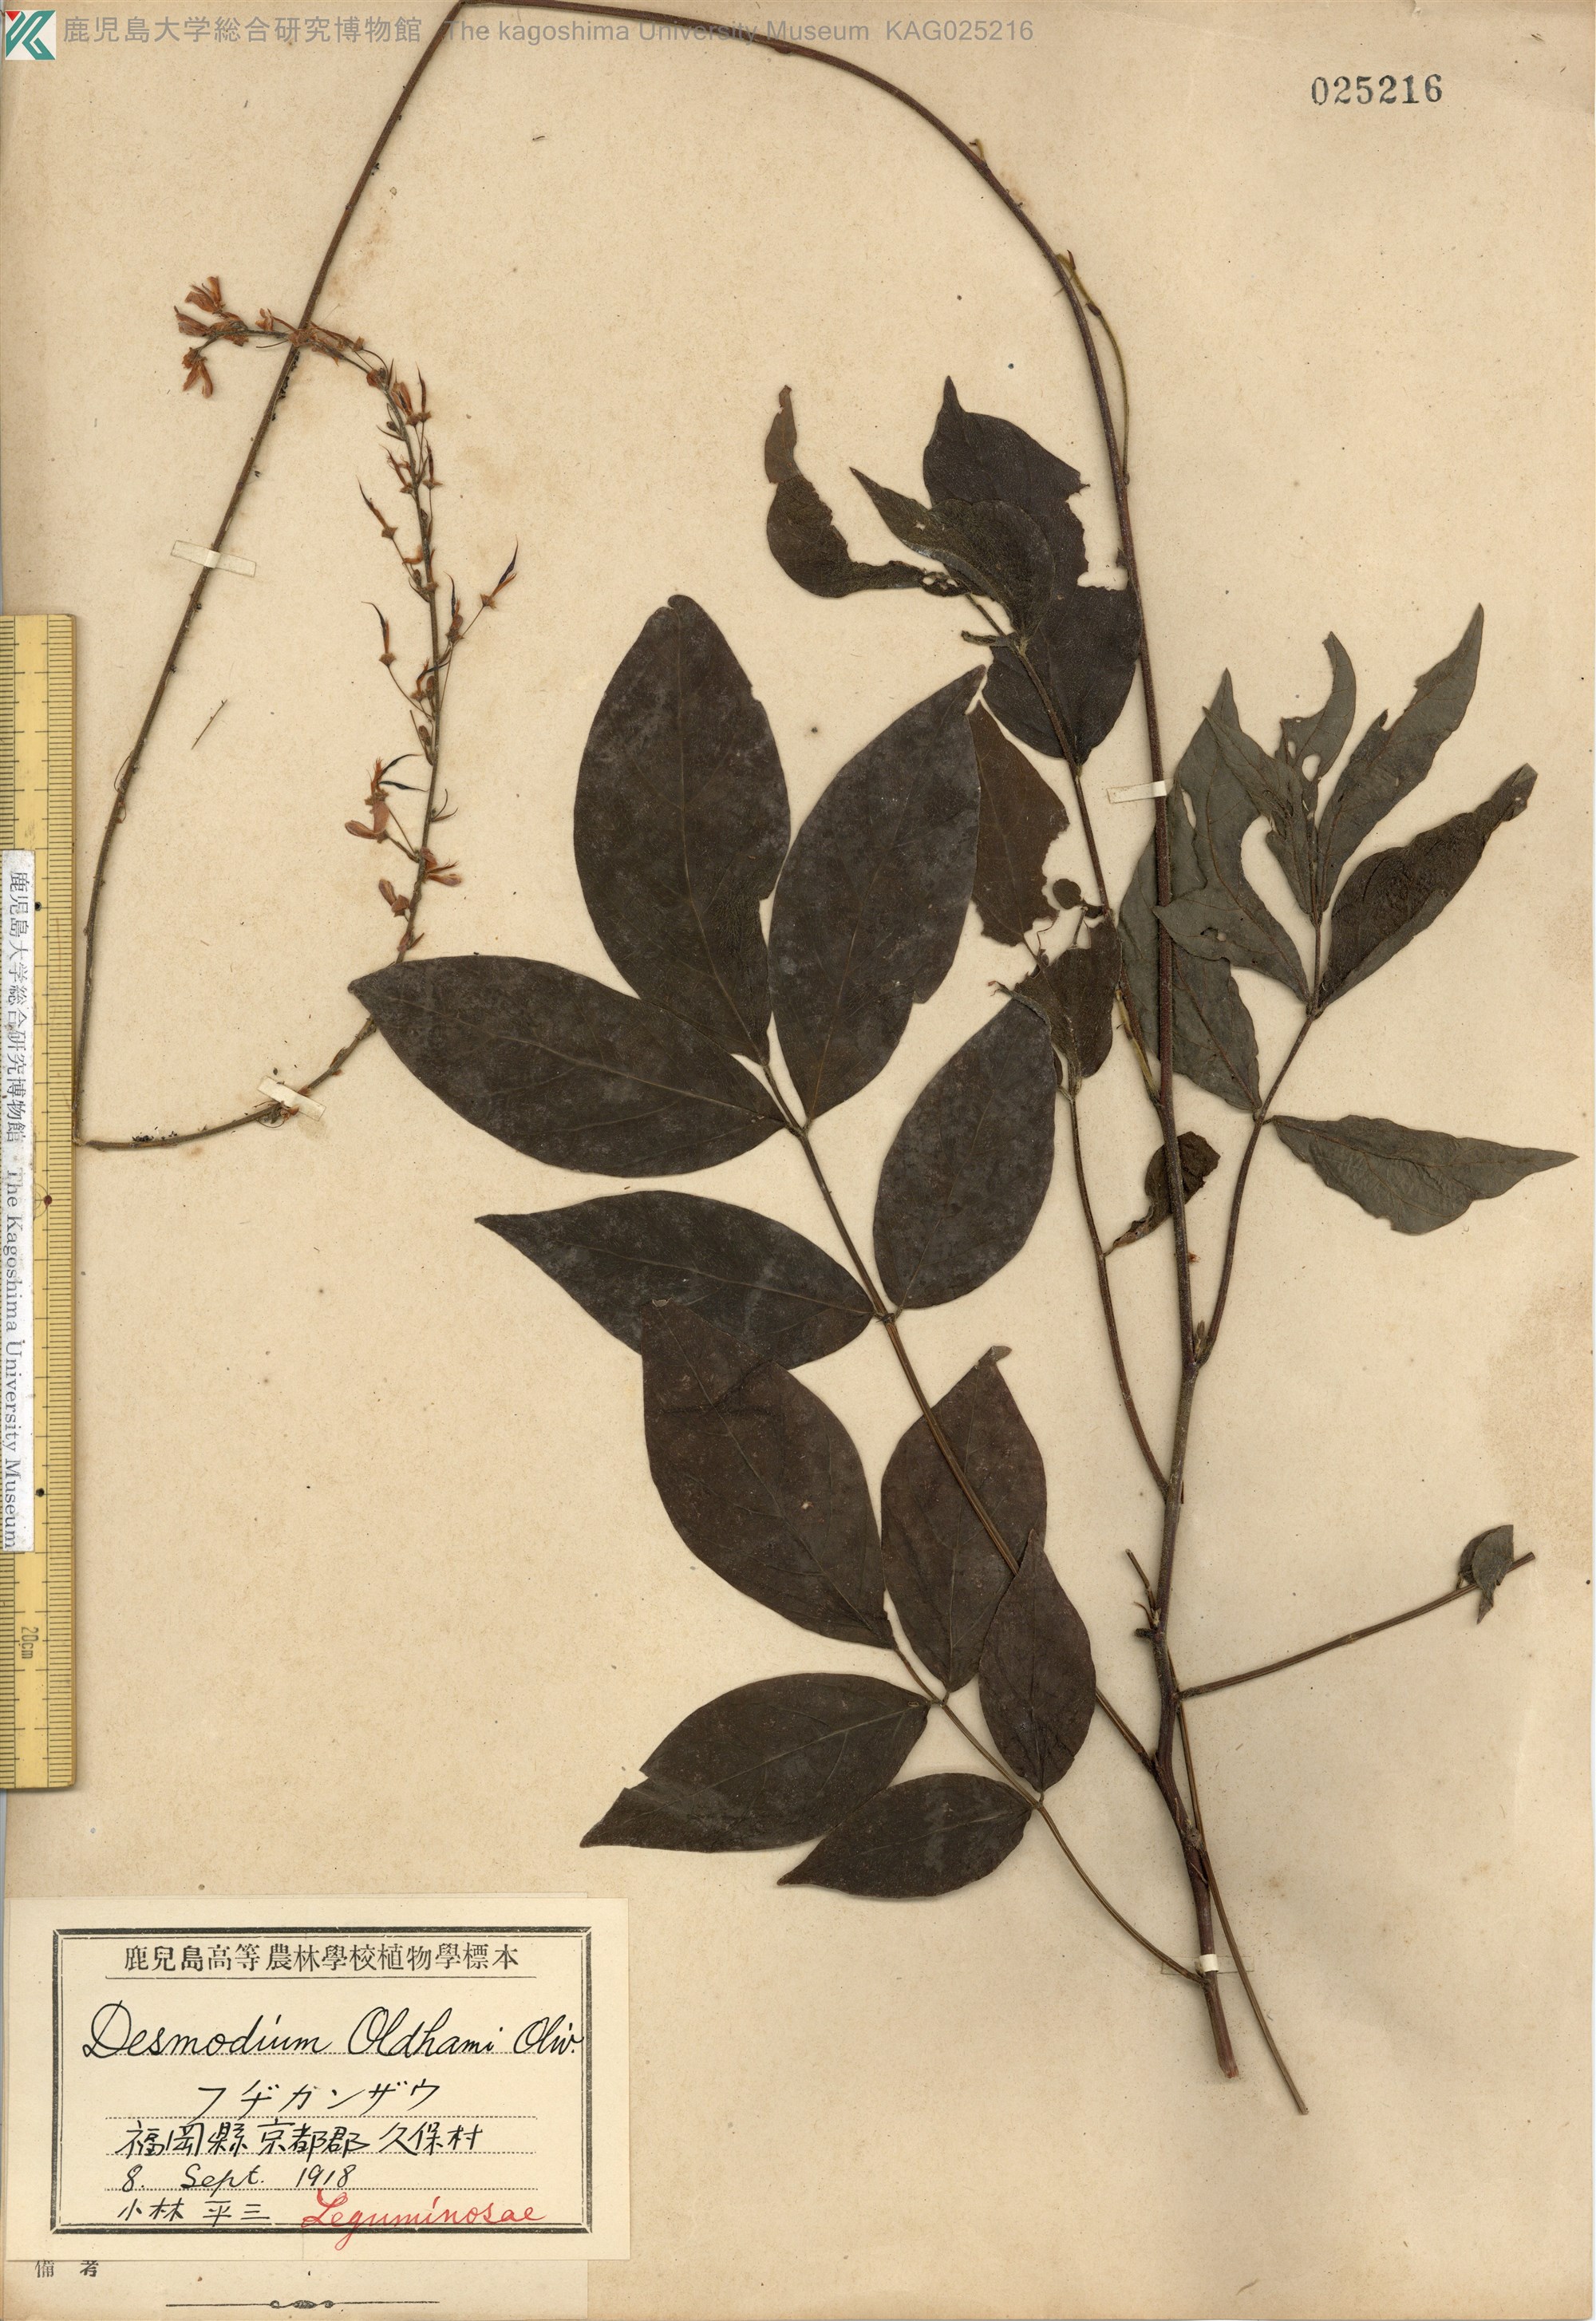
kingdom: Plantae
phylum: Tracheophyta
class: Magnoliopsida
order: Fabales
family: Fabaceae
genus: Hylodesmum
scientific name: Hylodesmum oldhamii
